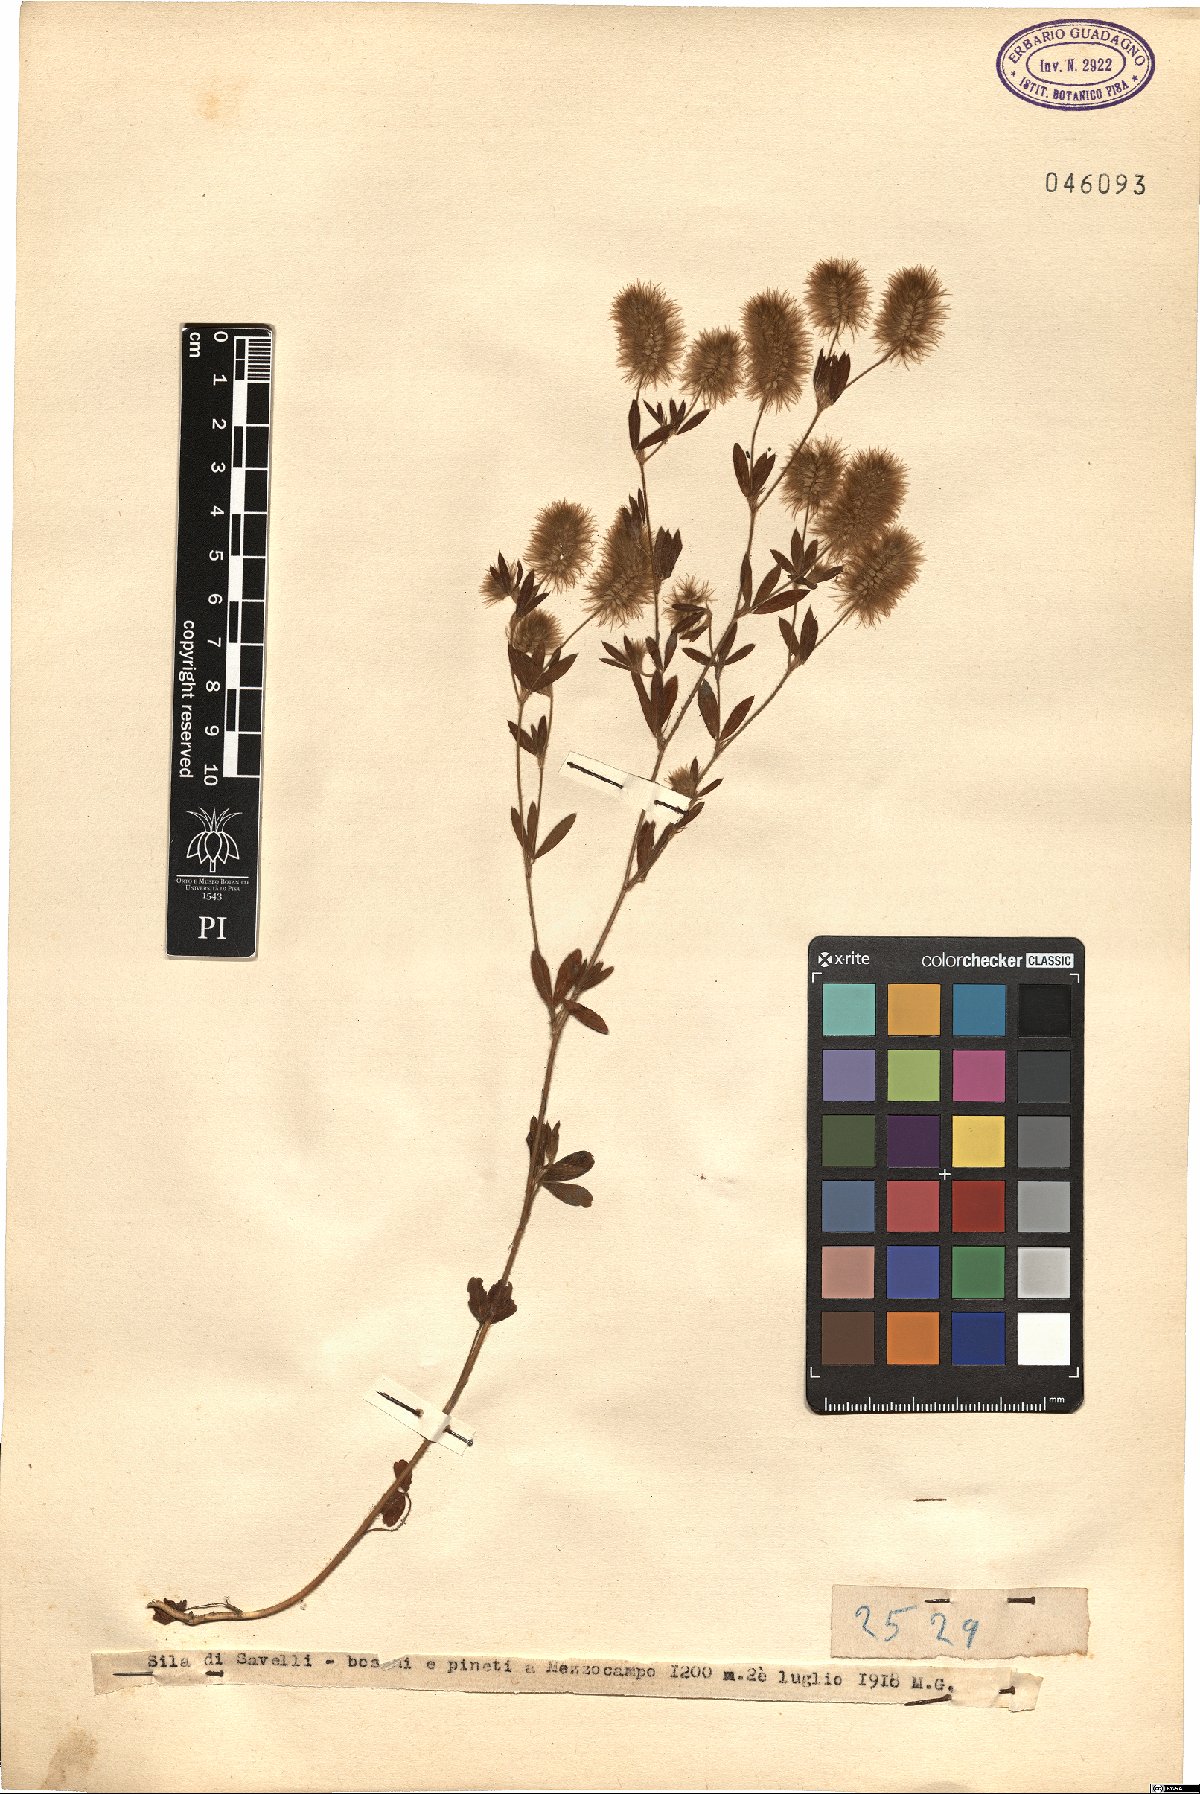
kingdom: Plantae
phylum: Tracheophyta
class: Magnoliopsida
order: Fabales
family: Fabaceae
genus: Trifolium
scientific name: Trifolium
